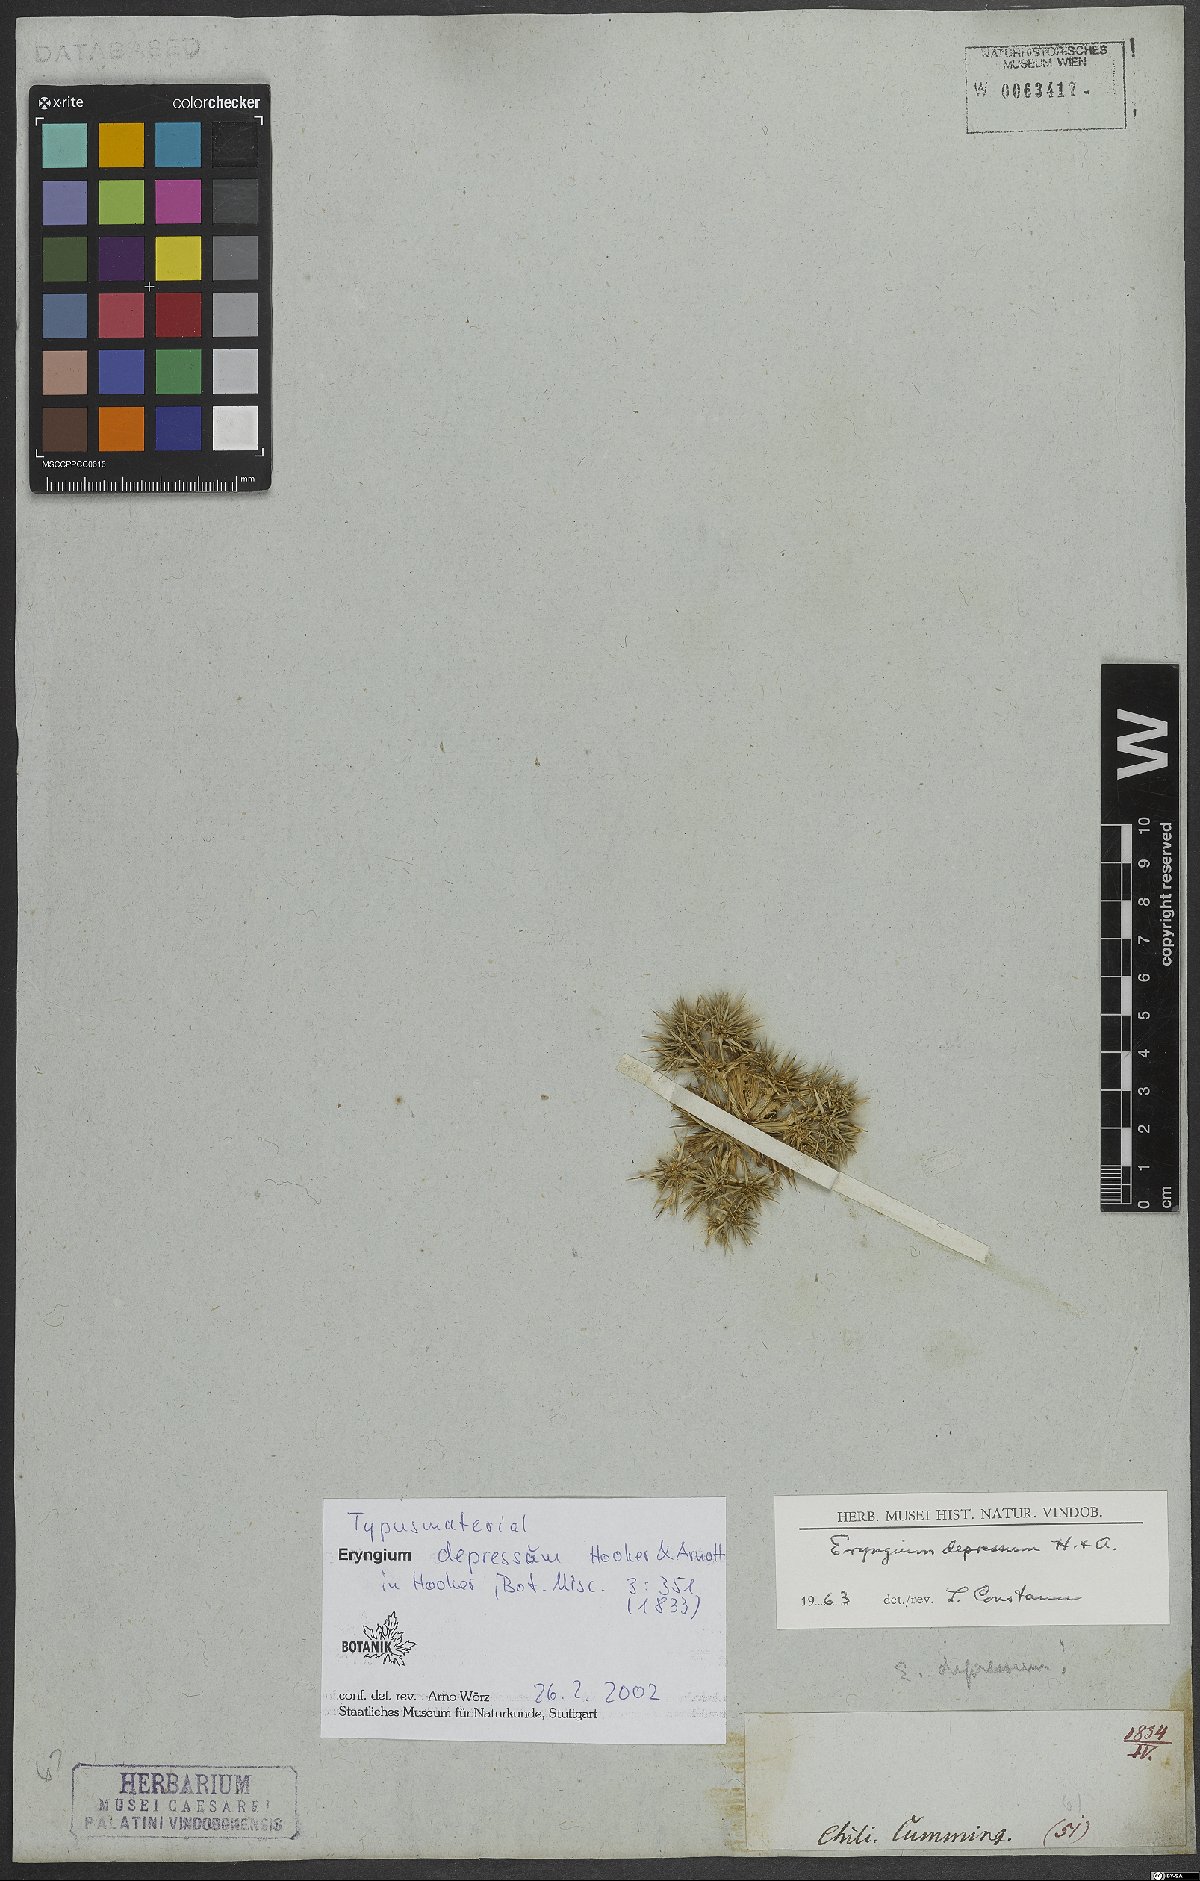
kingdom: Plantae
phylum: Tracheophyta
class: Magnoliopsida
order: Apiales
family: Apiaceae
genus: Eryngium
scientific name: Eryngium depressum
